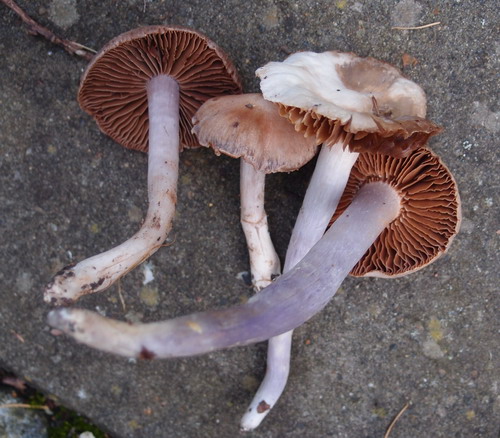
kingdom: Fungi
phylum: Basidiomycota
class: Agaricomycetes
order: Agaricales
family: Cortinariaceae
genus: Cortinarius
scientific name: Cortinarius cagei
